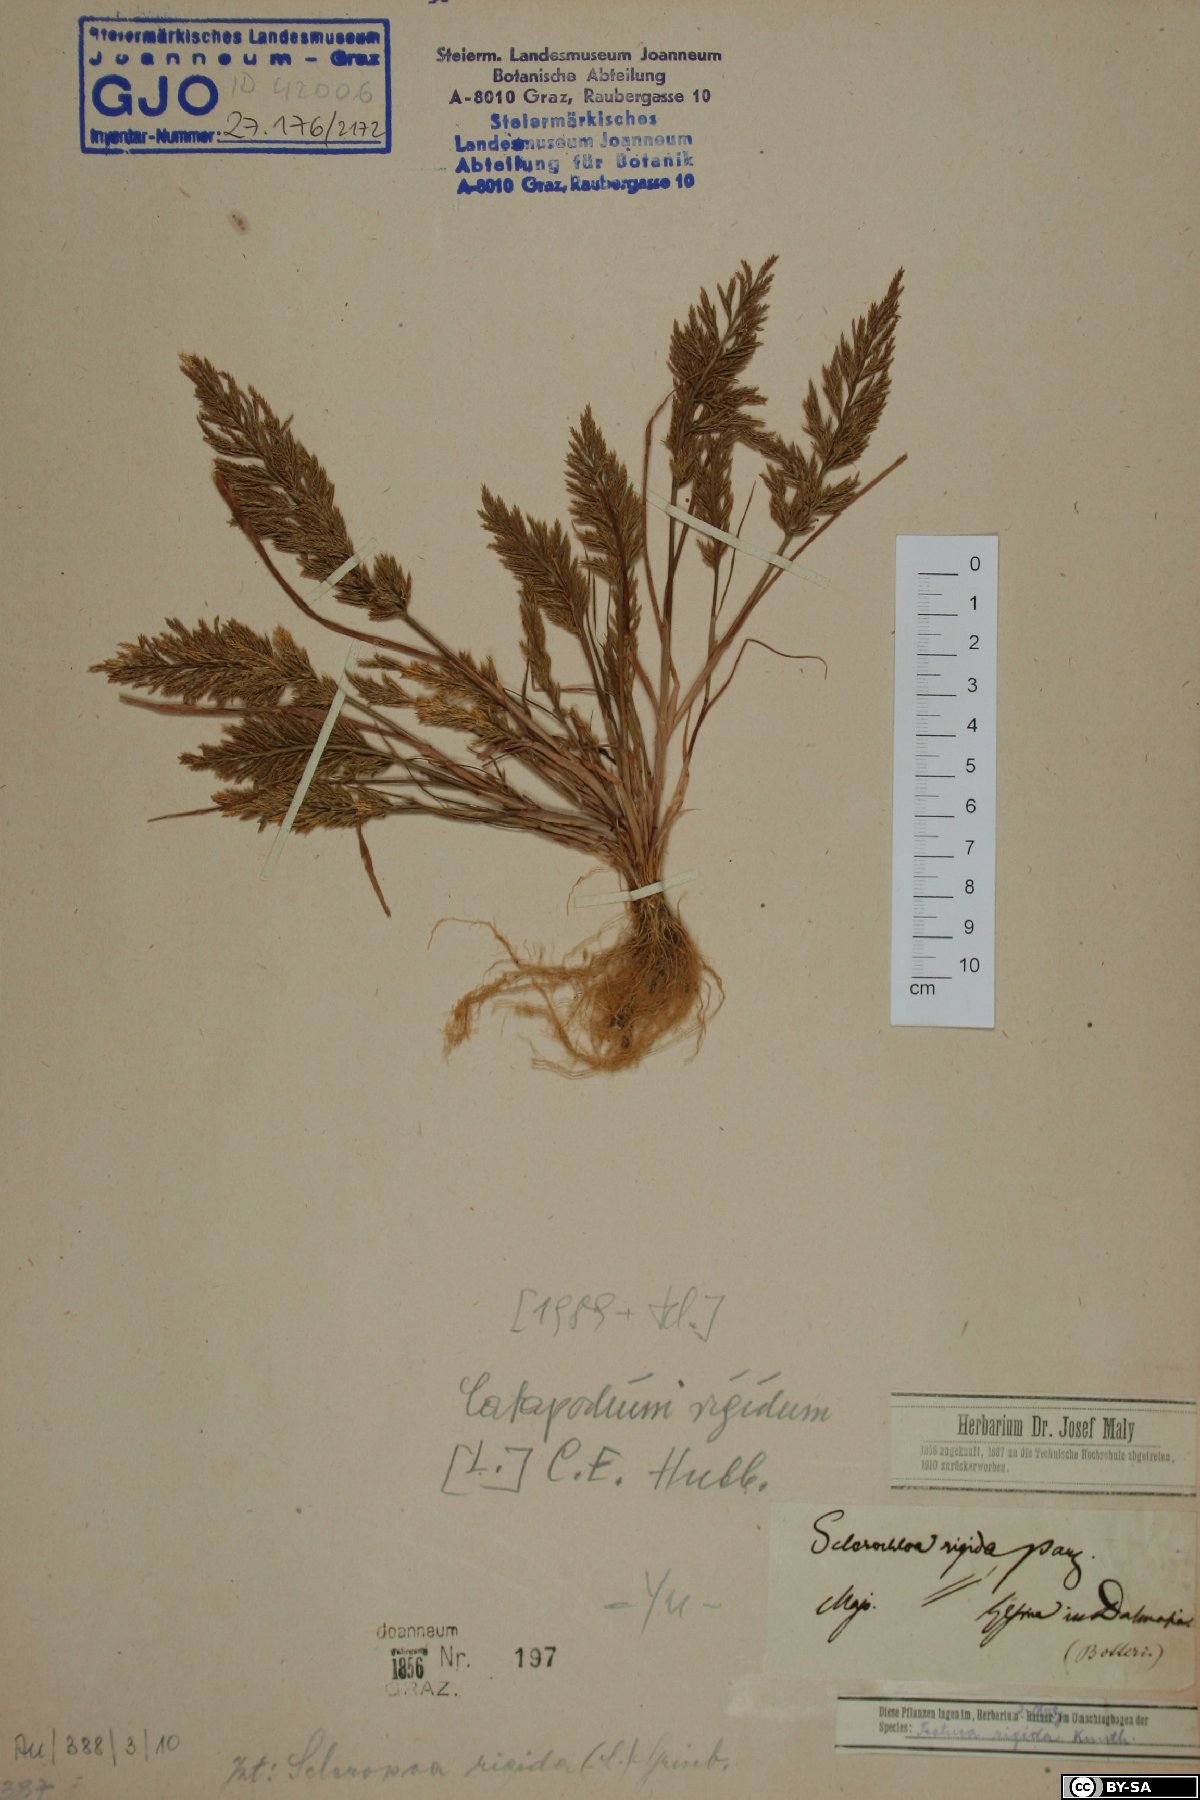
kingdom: Plantae
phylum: Tracheophyta
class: Liliopsida
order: Poales
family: Poaceae
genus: Catapodium
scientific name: Catapodium rigidum
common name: Fern-grass
